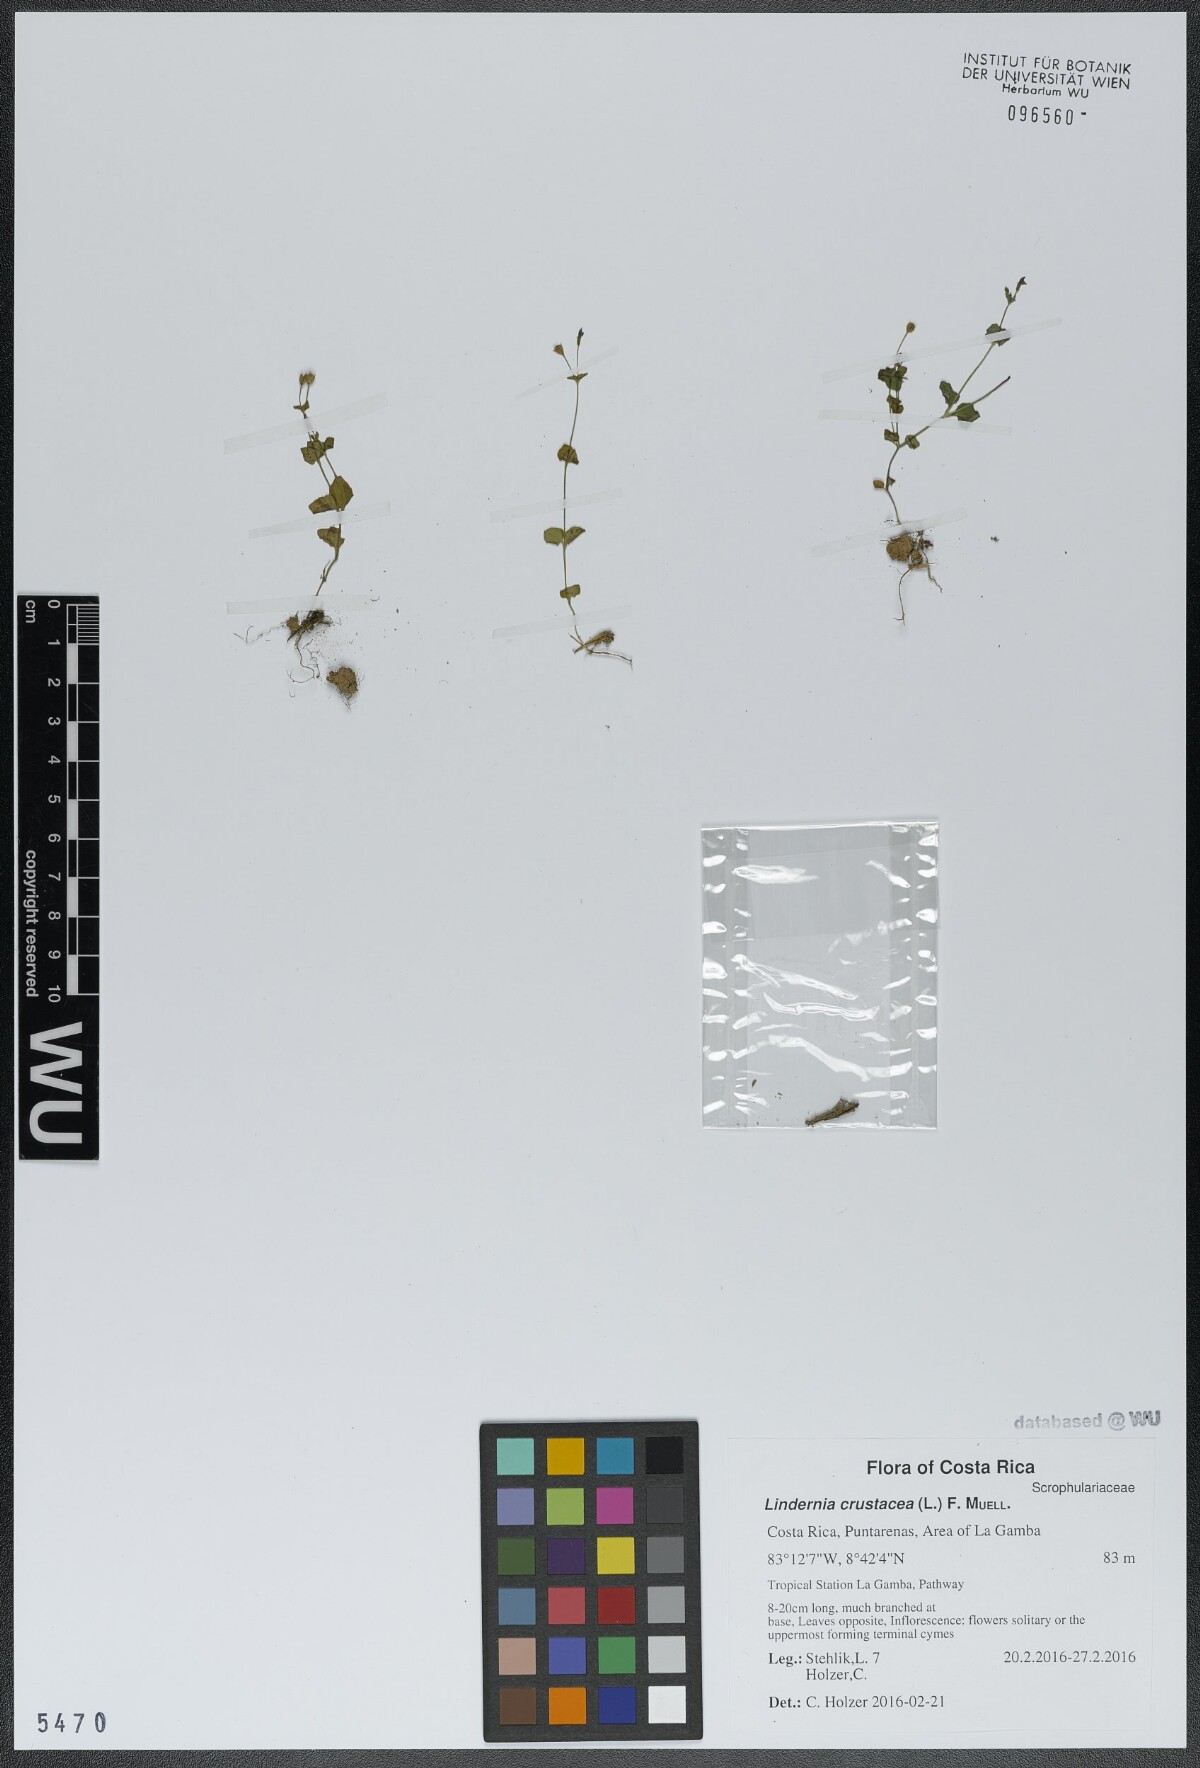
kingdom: Plantae
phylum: Tracheophyta
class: Magnoliopsida
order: Lamiales
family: Linderniaceae
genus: Torenia
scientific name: Torenia crustacea
